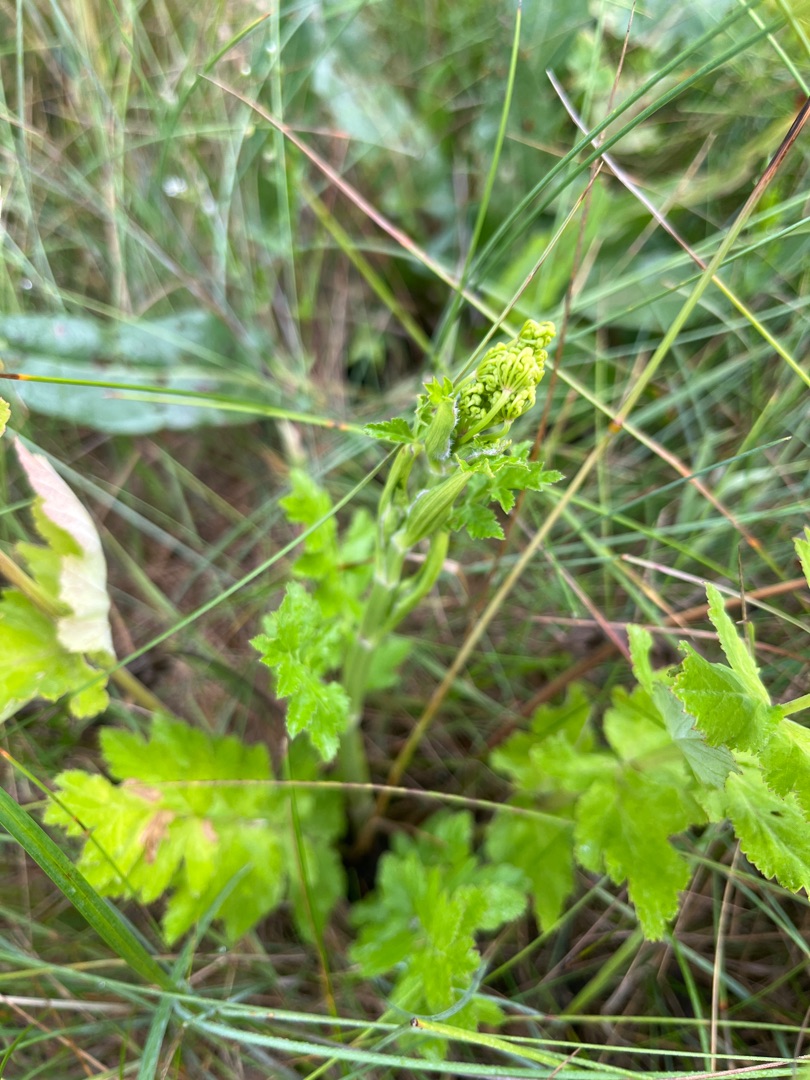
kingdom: Plantae
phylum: Tracheophyta
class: Magnoliopsida
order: Apiales
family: Apiaceae
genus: Pastinaca
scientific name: Pastinaca sativa
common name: Pastinak
